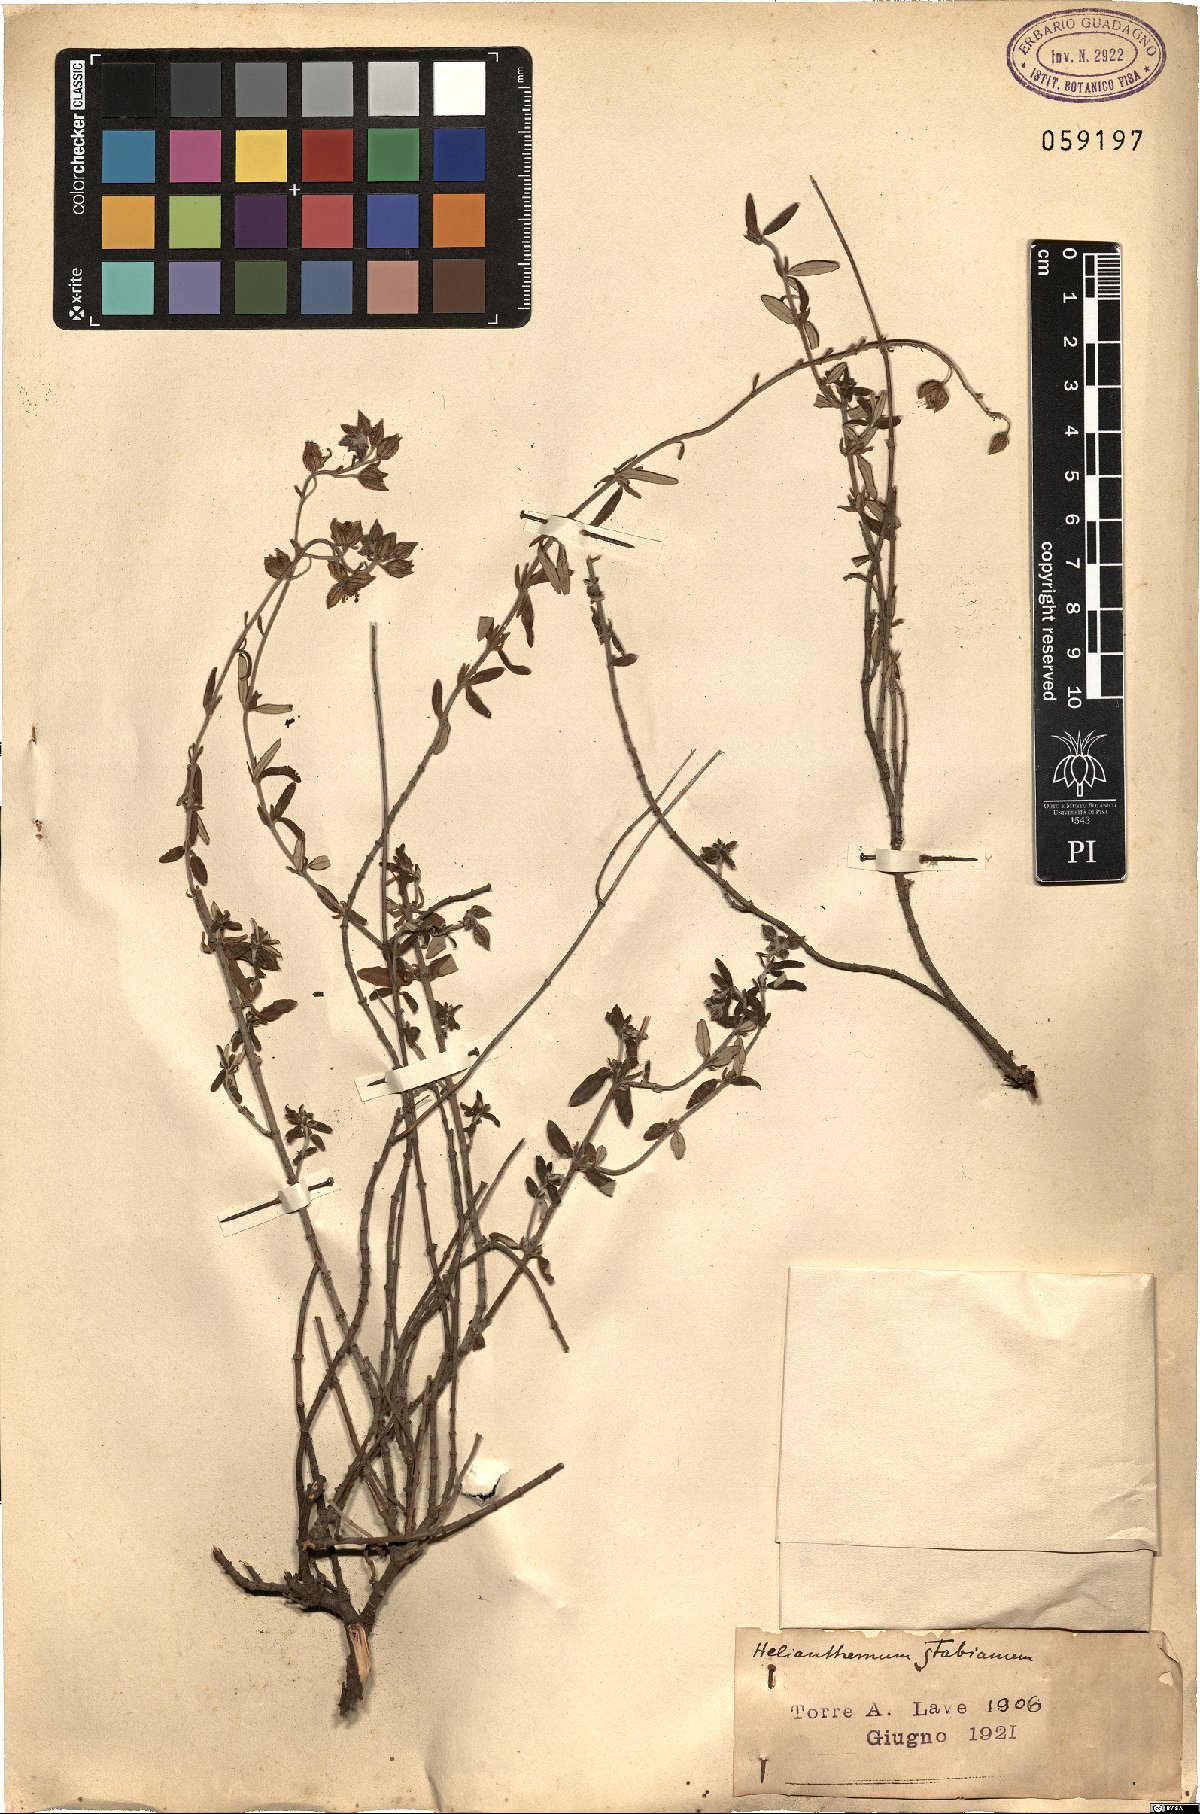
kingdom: Plantae
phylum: Tracheophyta
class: Magnoliopsida
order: Malvales
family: Cistaceae
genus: Helianthemum
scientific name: Helianthemum croceum
